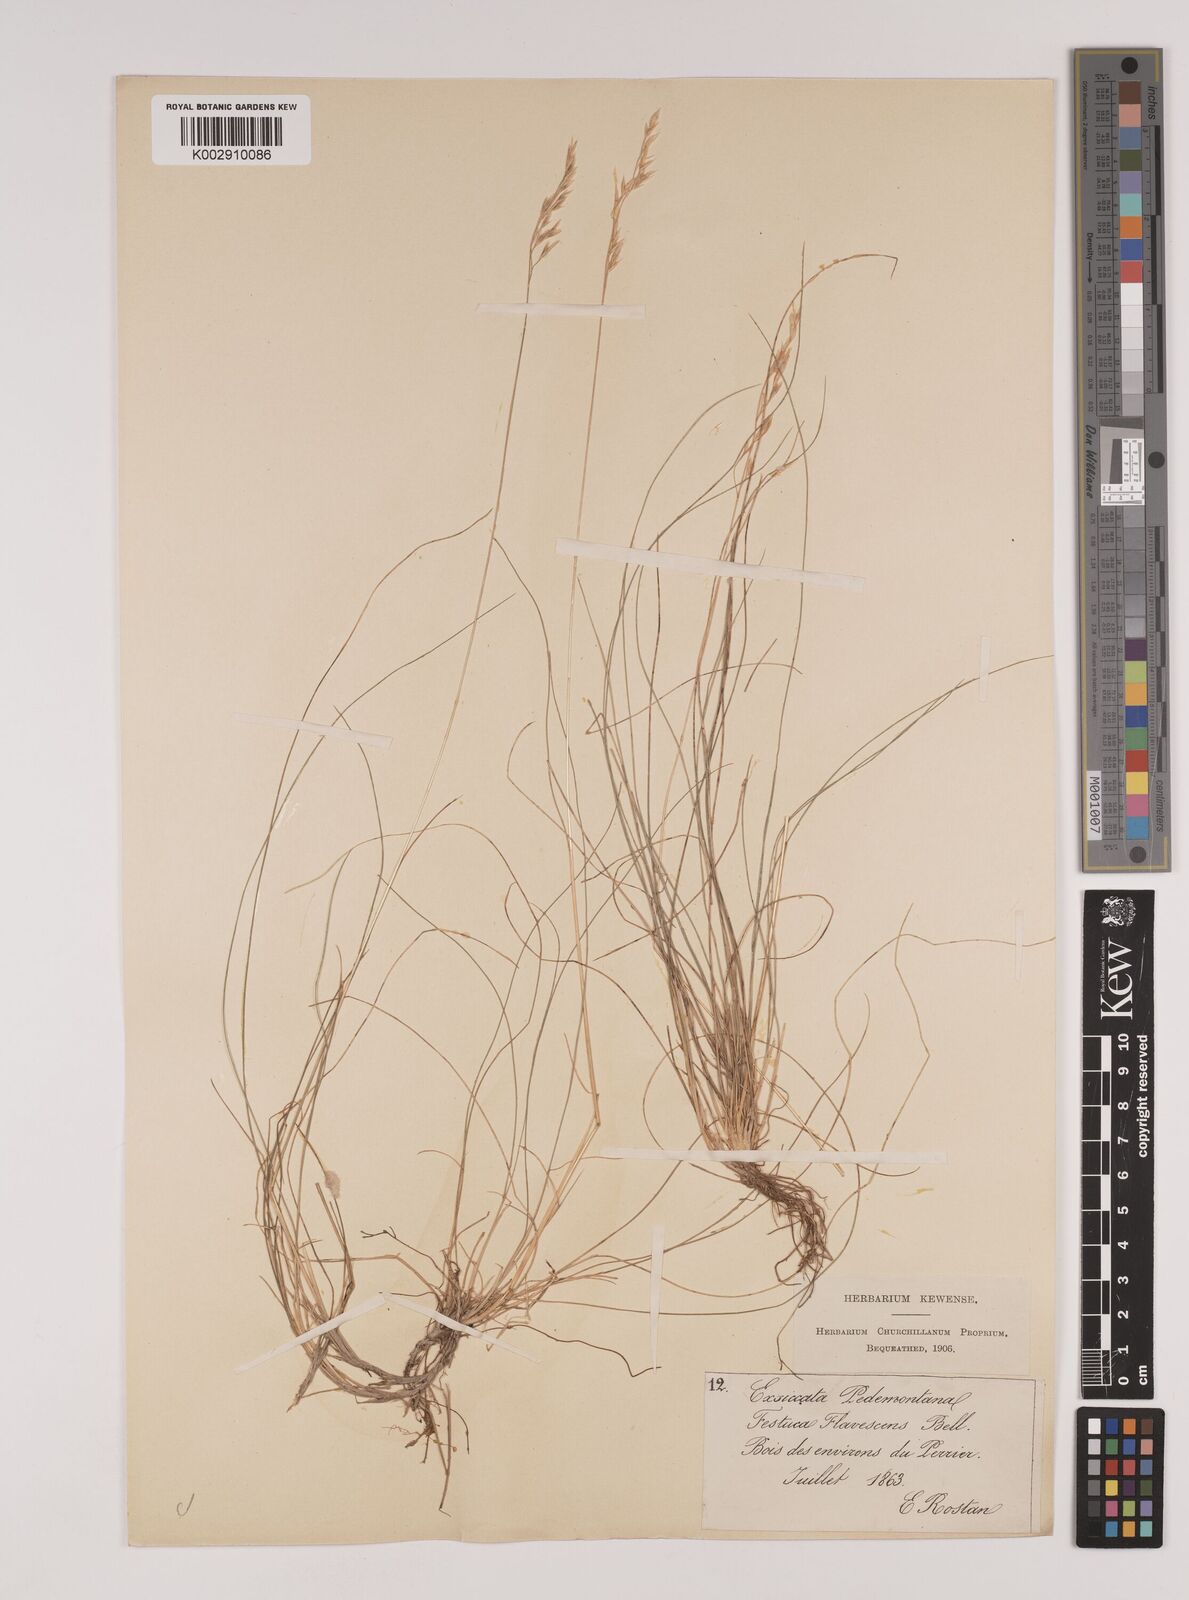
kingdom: Plantae
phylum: Tracheophyta
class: Liliopsida
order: Poales
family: Poaceae
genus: Festuca
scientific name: Festuca flavescens
